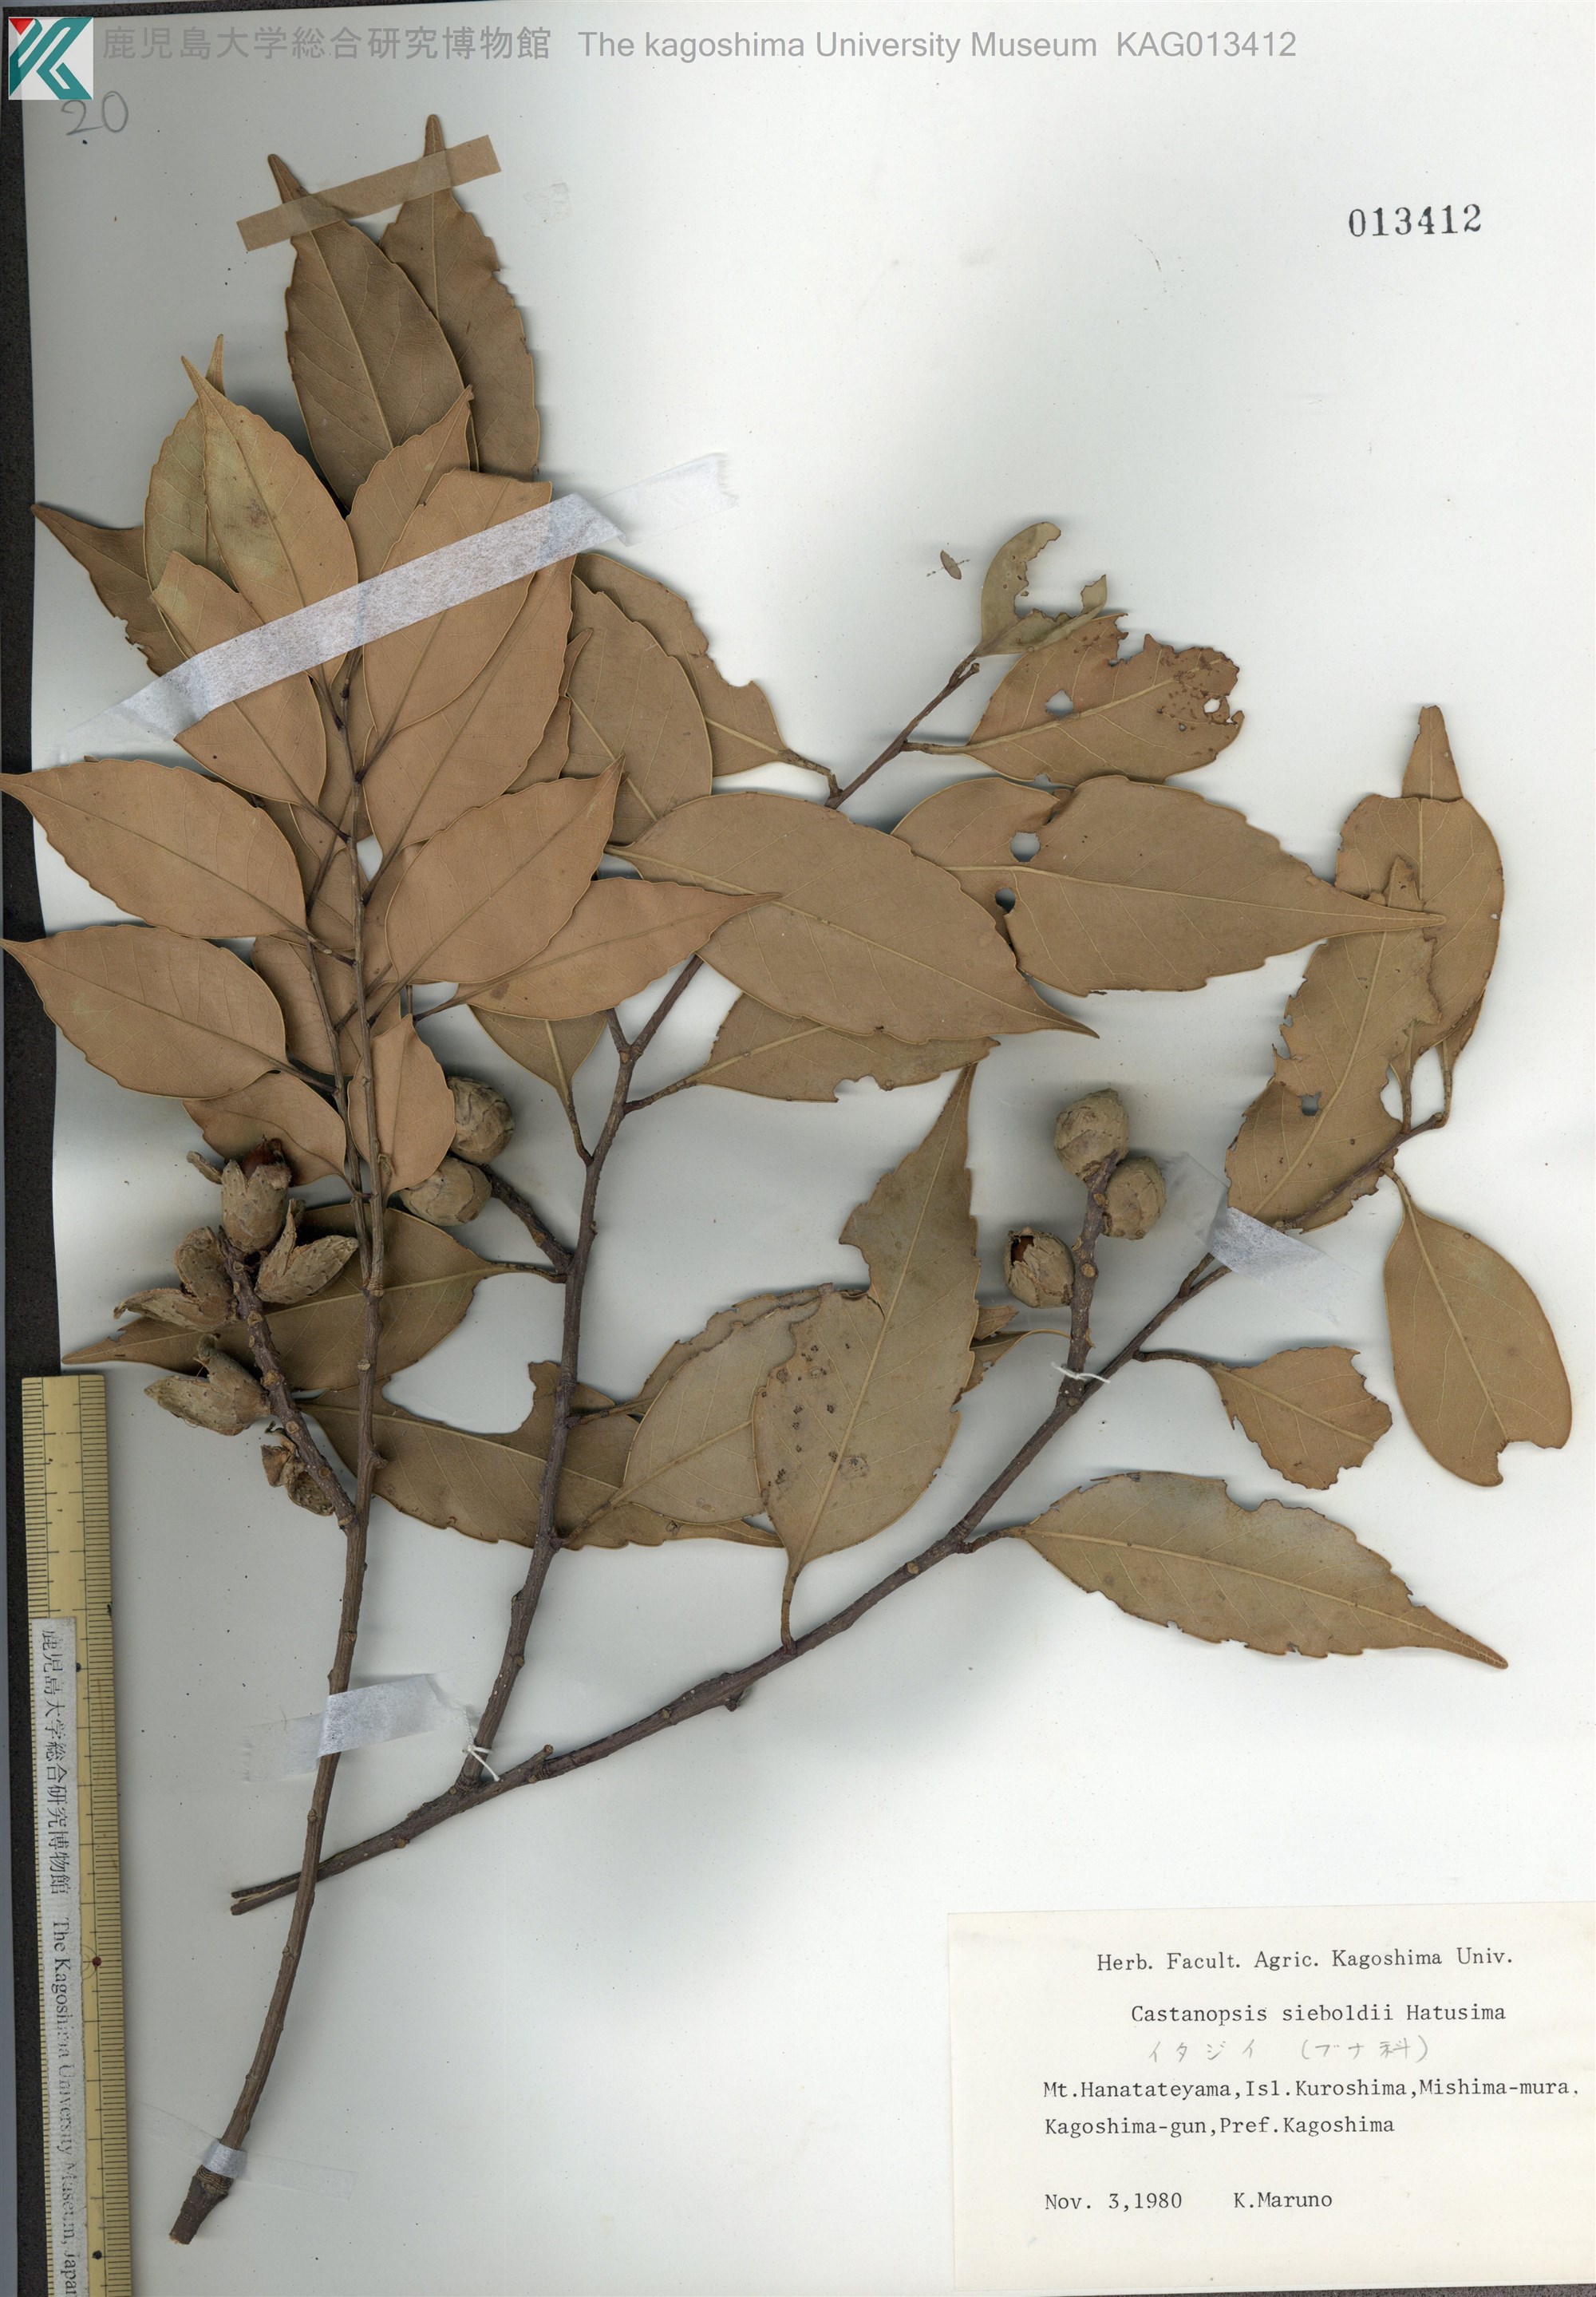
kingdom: Plantae
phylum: Tracheophyta
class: Magnoliopsida
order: Fagales
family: Fagaceae
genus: Castanopsis
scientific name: Castanopsis sieboldii
